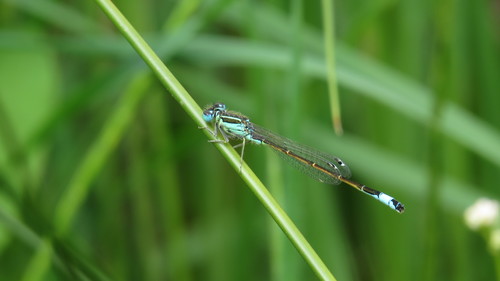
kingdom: Animalia
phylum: Arthropoda
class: Insecta
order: Odonata
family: Coenagrionidae
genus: Ischnura
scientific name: Ischnura graellsii
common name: Iberian bluetail
